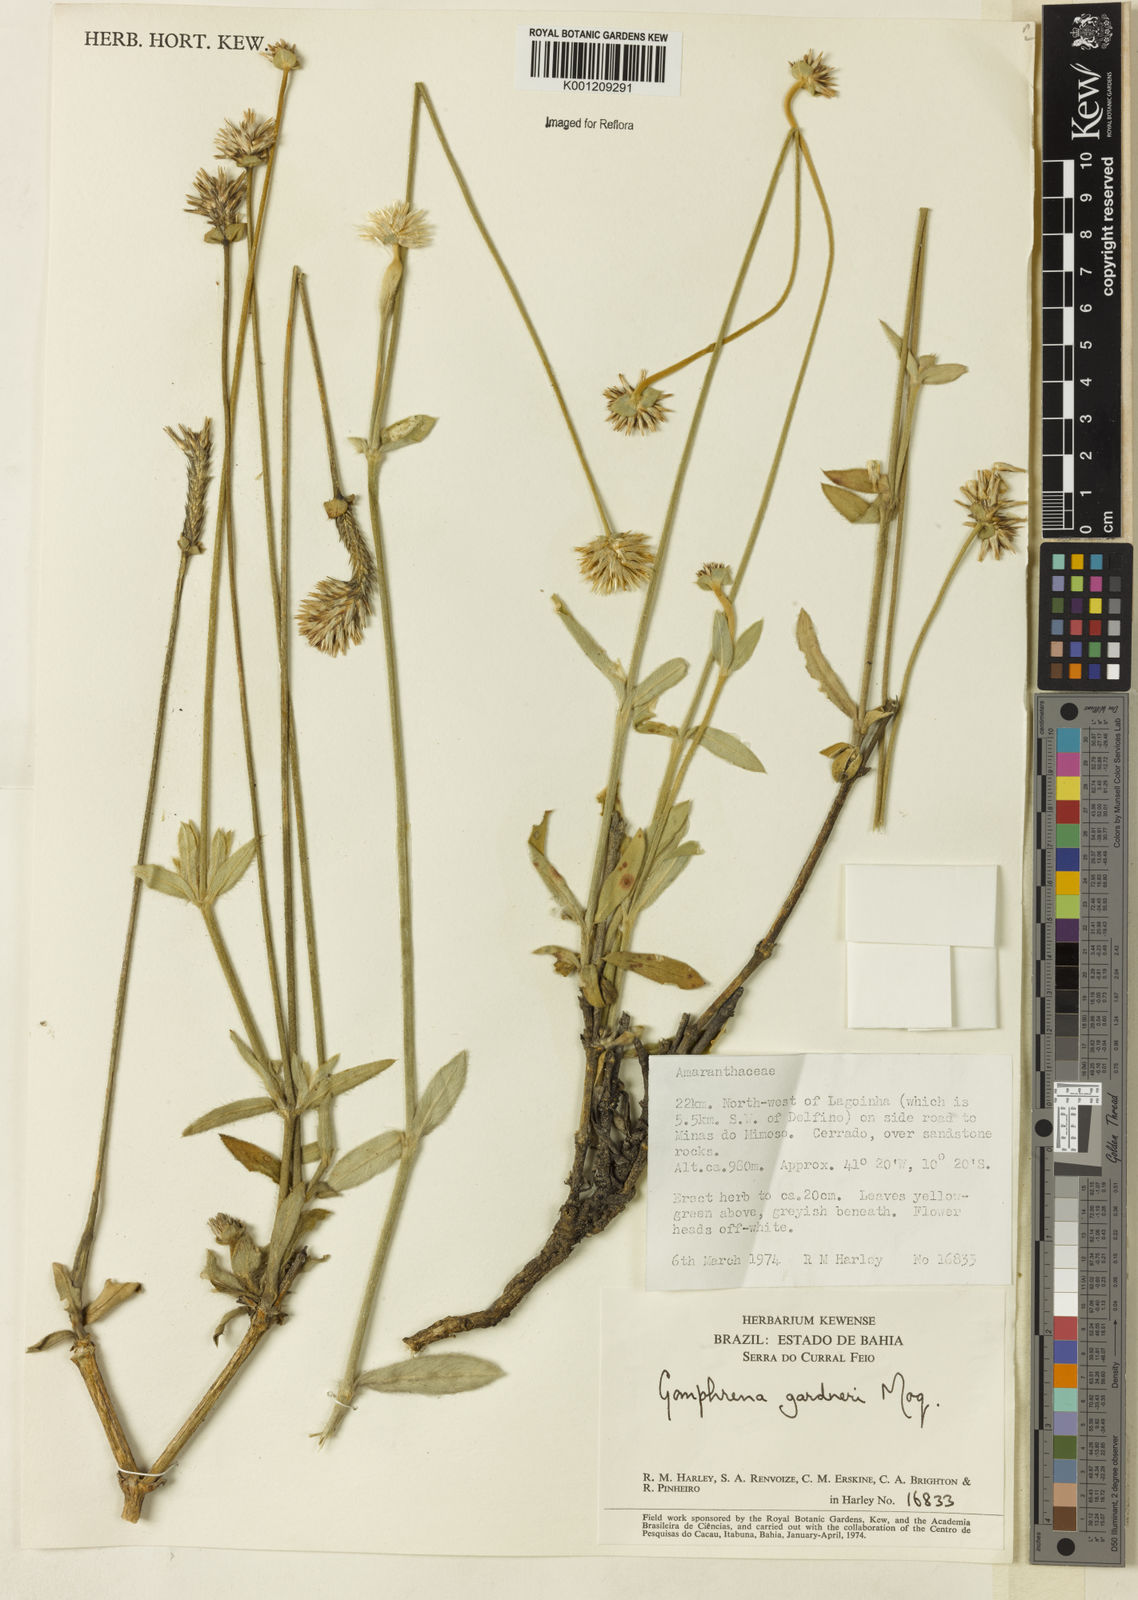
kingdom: Plantae
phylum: Tracheophyta
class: Magnoliopsida
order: Caryophyllales
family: Amaranthaceae
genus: Gomphrena
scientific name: Gomphrena gardneri
